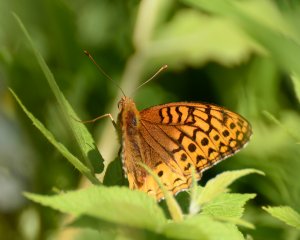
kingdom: Animalia
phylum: Arthropoda
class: Insecta
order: Lepidoptera
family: Nymphalidae
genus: Speyeria
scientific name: Speyeria cybele
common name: Great Spangled Fritillary
